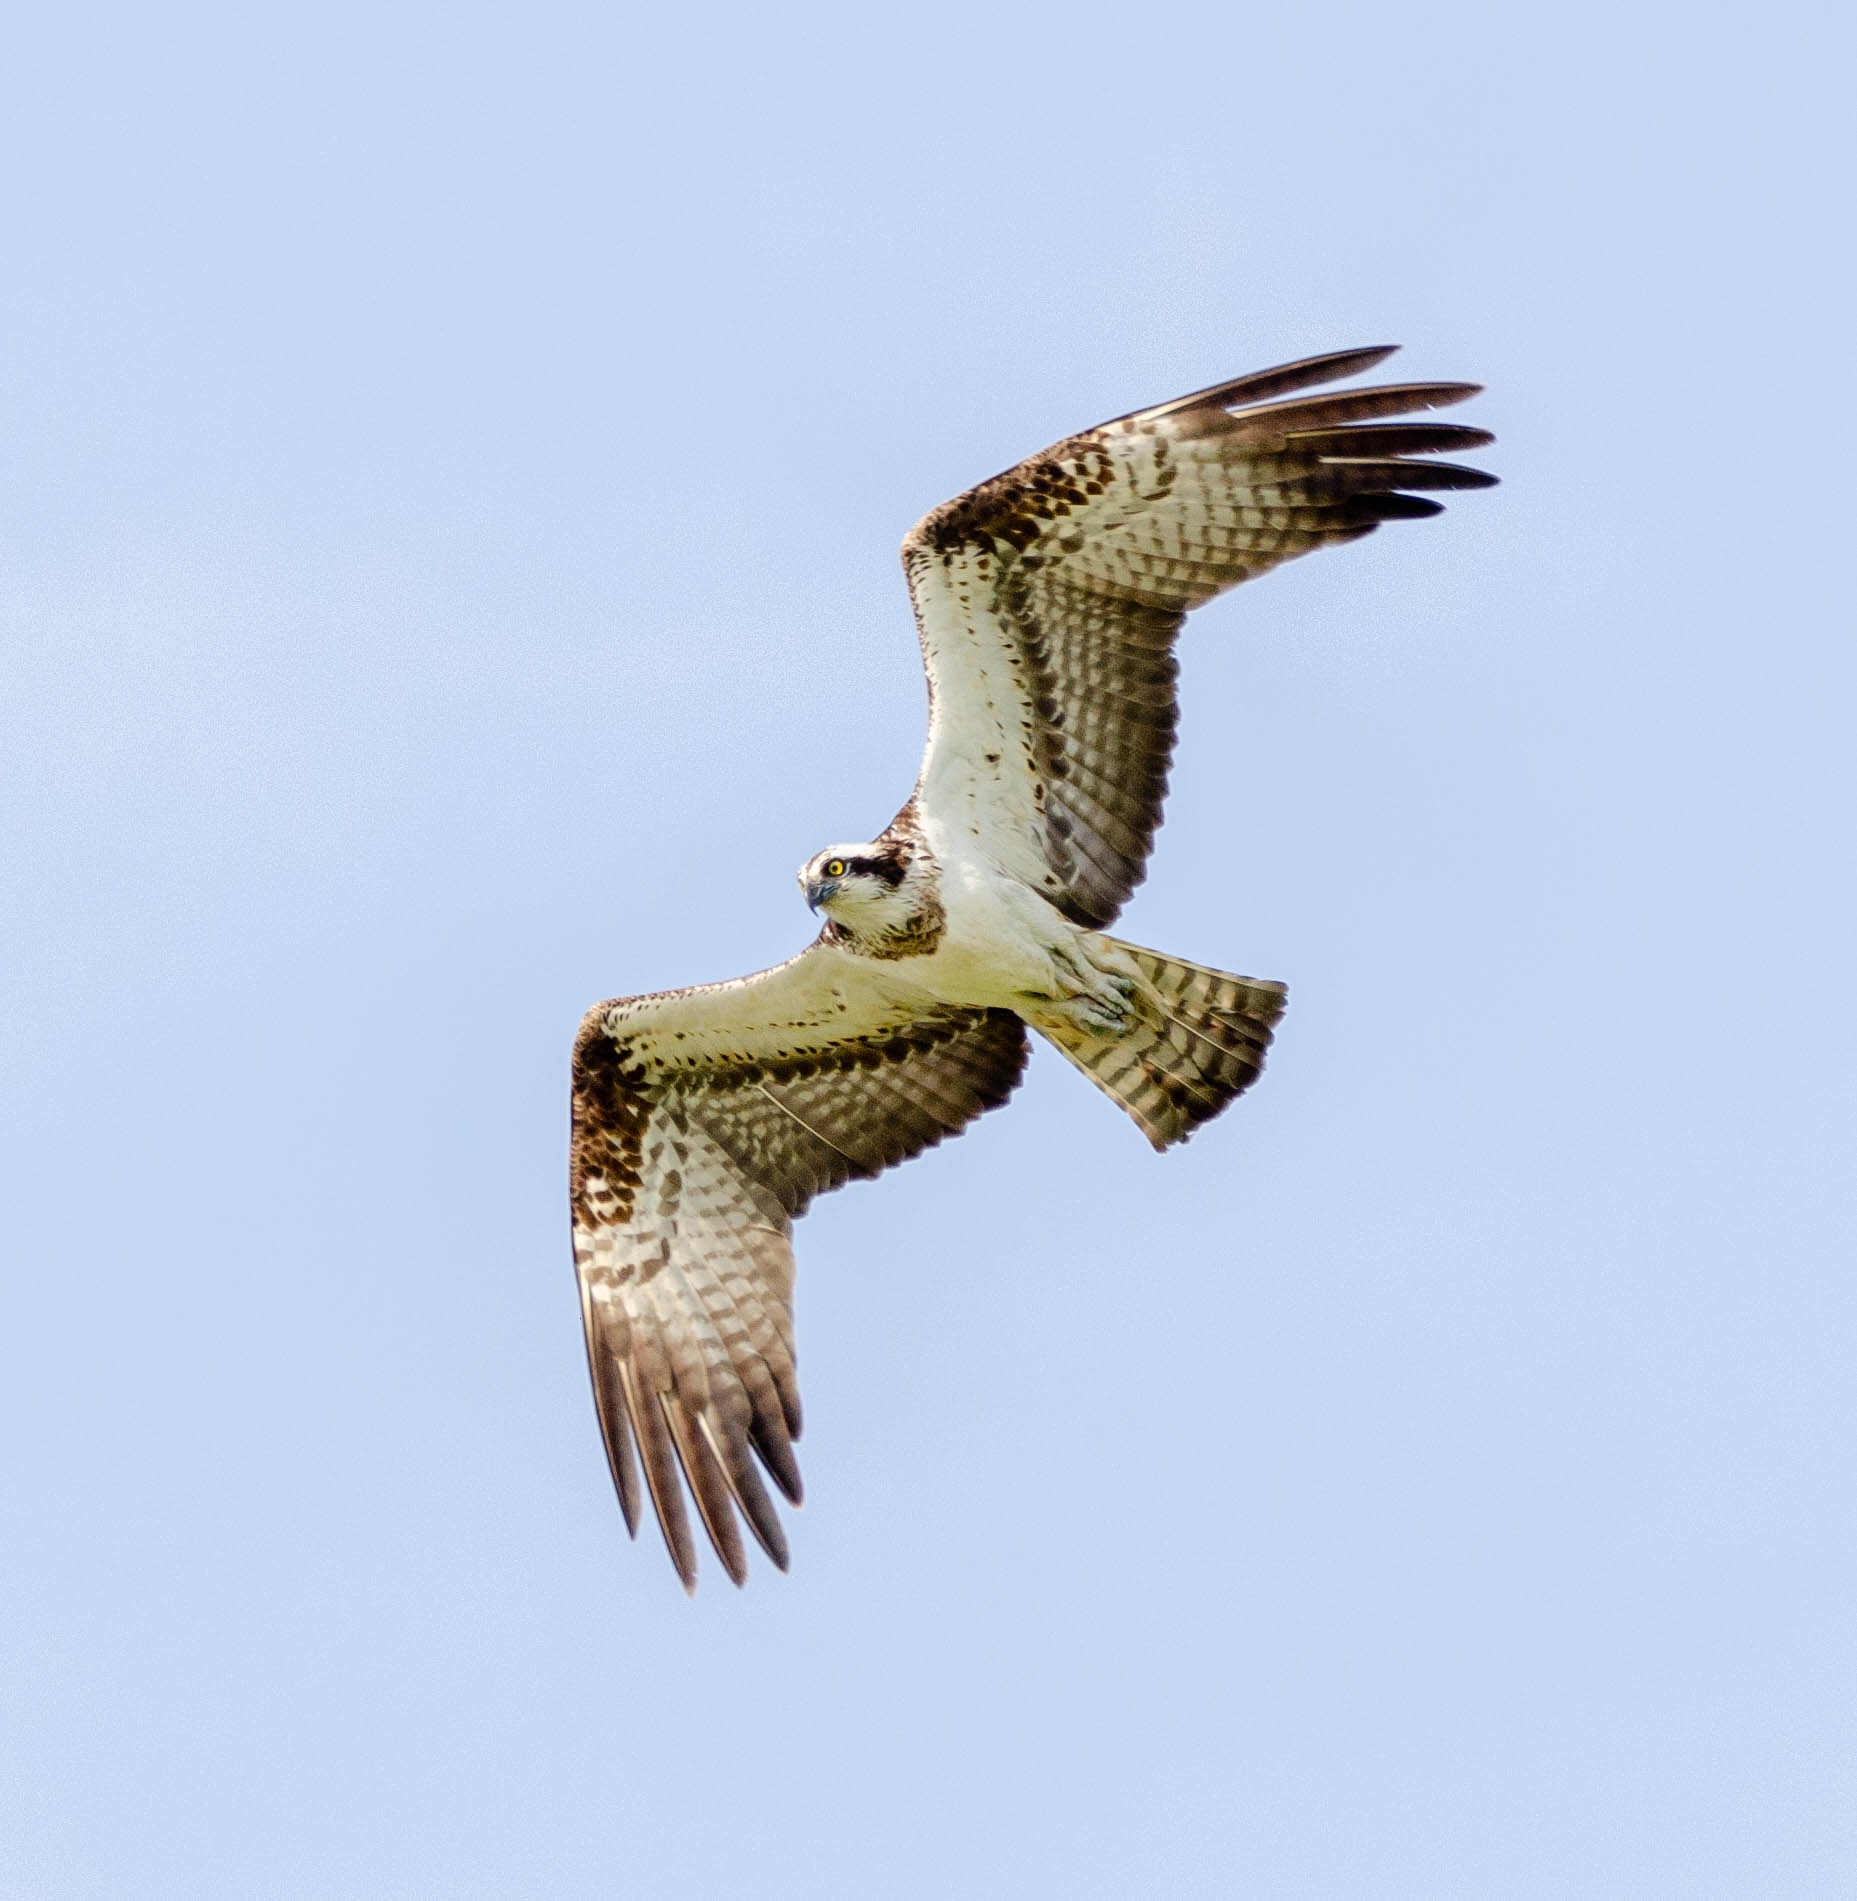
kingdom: Animalia
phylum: Chordata
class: Aves
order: Accipitriformes
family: Pandionidae
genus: Pandion
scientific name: Pandion haliaetus
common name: Fiskeørn
